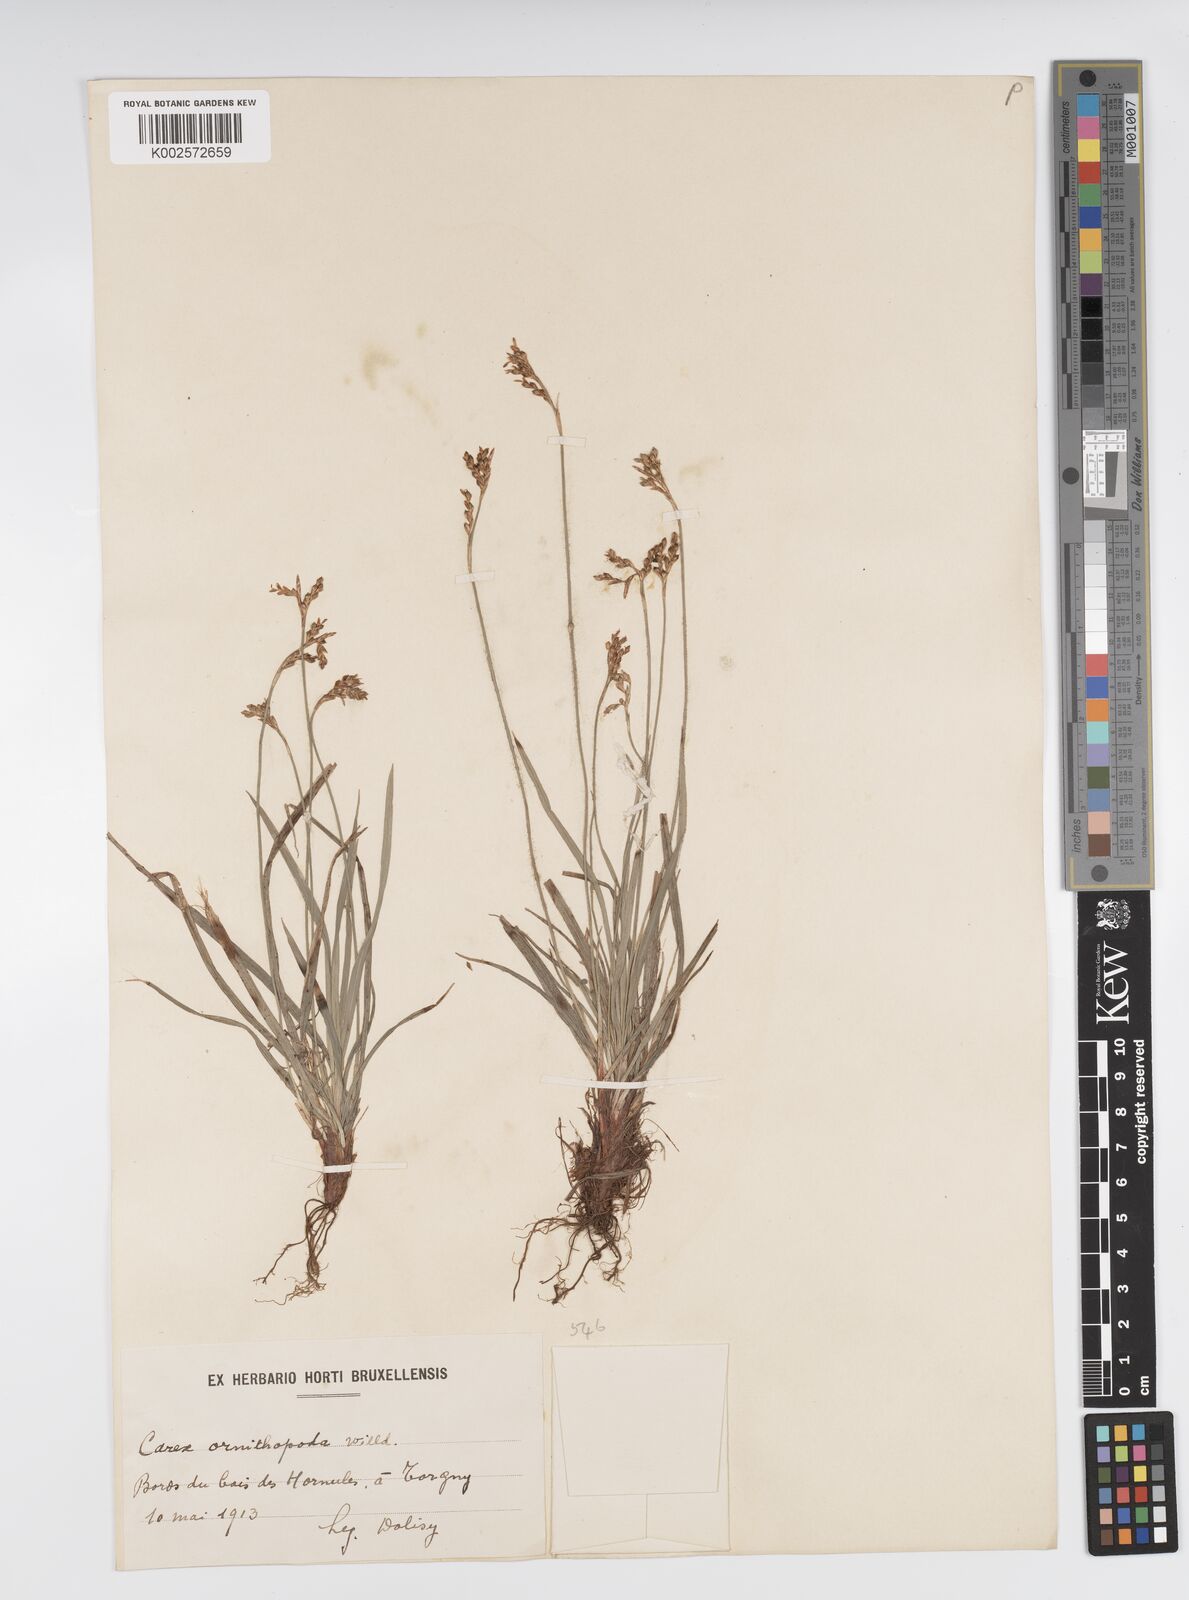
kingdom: Plantae
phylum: Tracheophyta
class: Liliopsida
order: Poales
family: Cyperaceae
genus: Carex
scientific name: Carex ornithopoda
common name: Bird's-foot sedge
